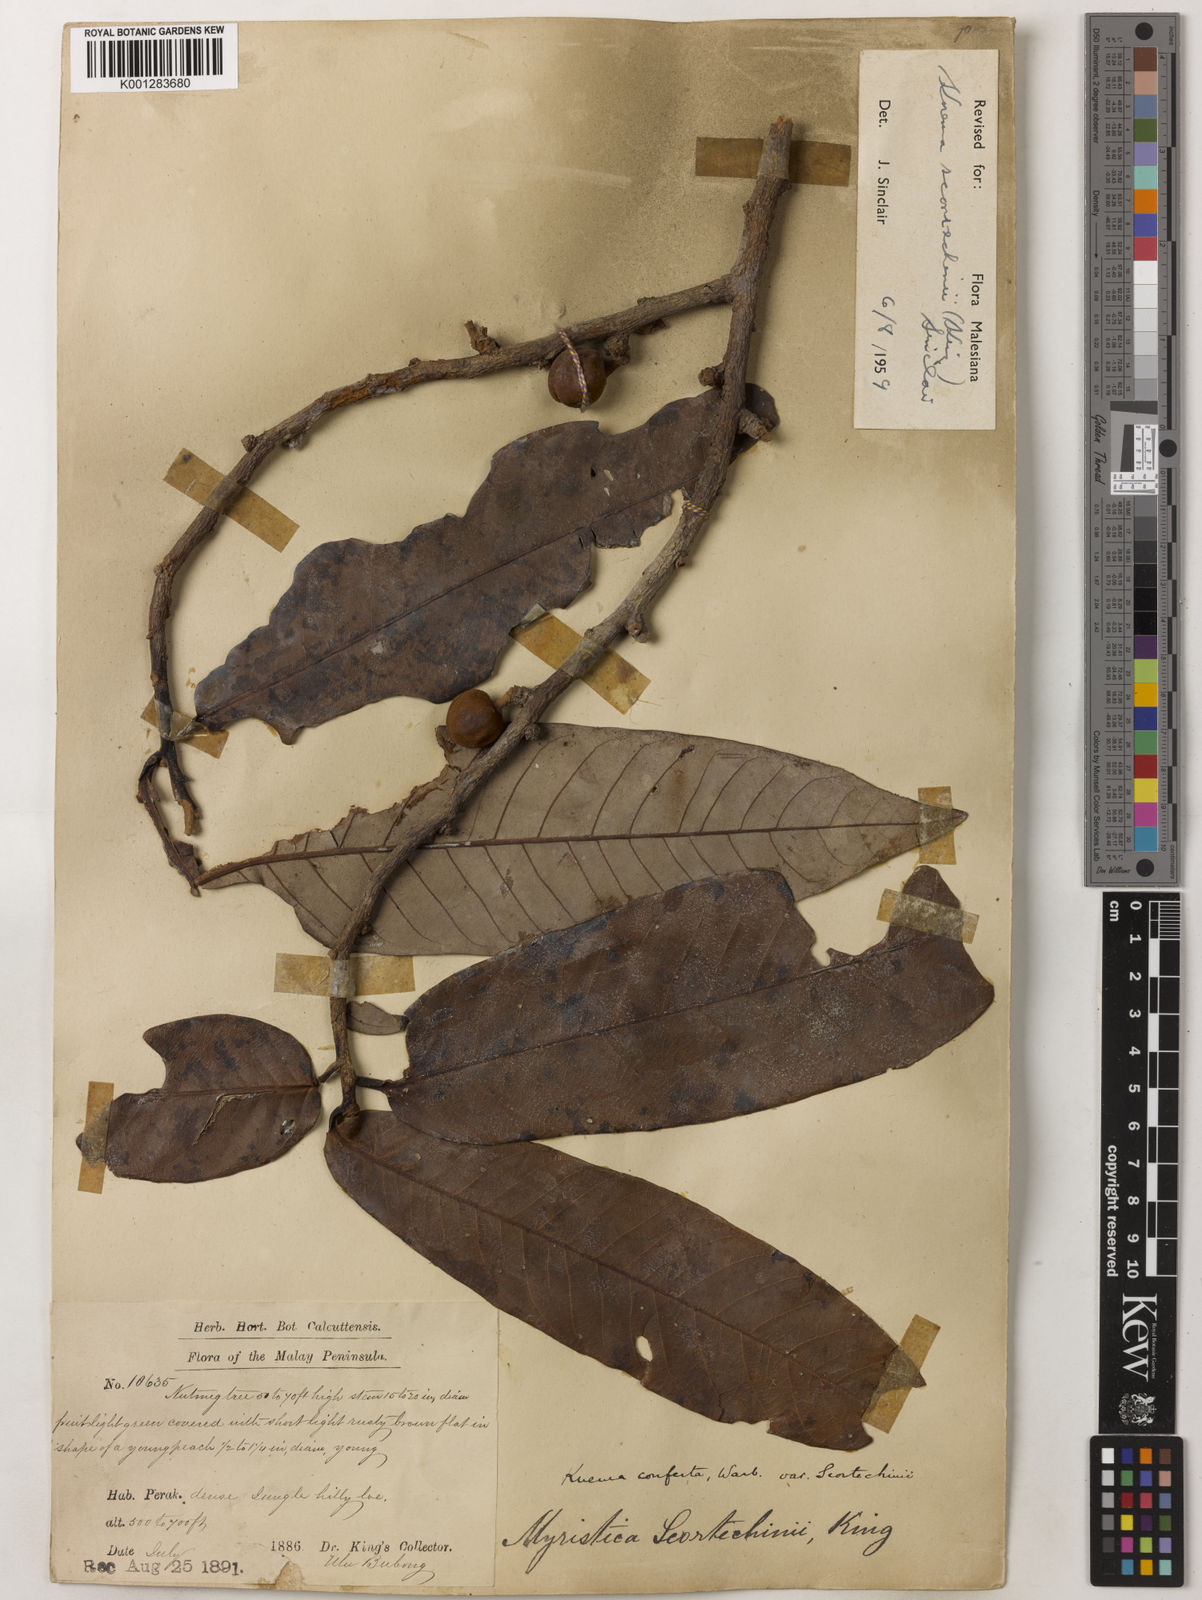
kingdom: Plantae
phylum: Tracheophyta
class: Magnoliopsida
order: Magnoliales
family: Myristicaceae
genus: Knema
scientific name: Knema scortechinii
